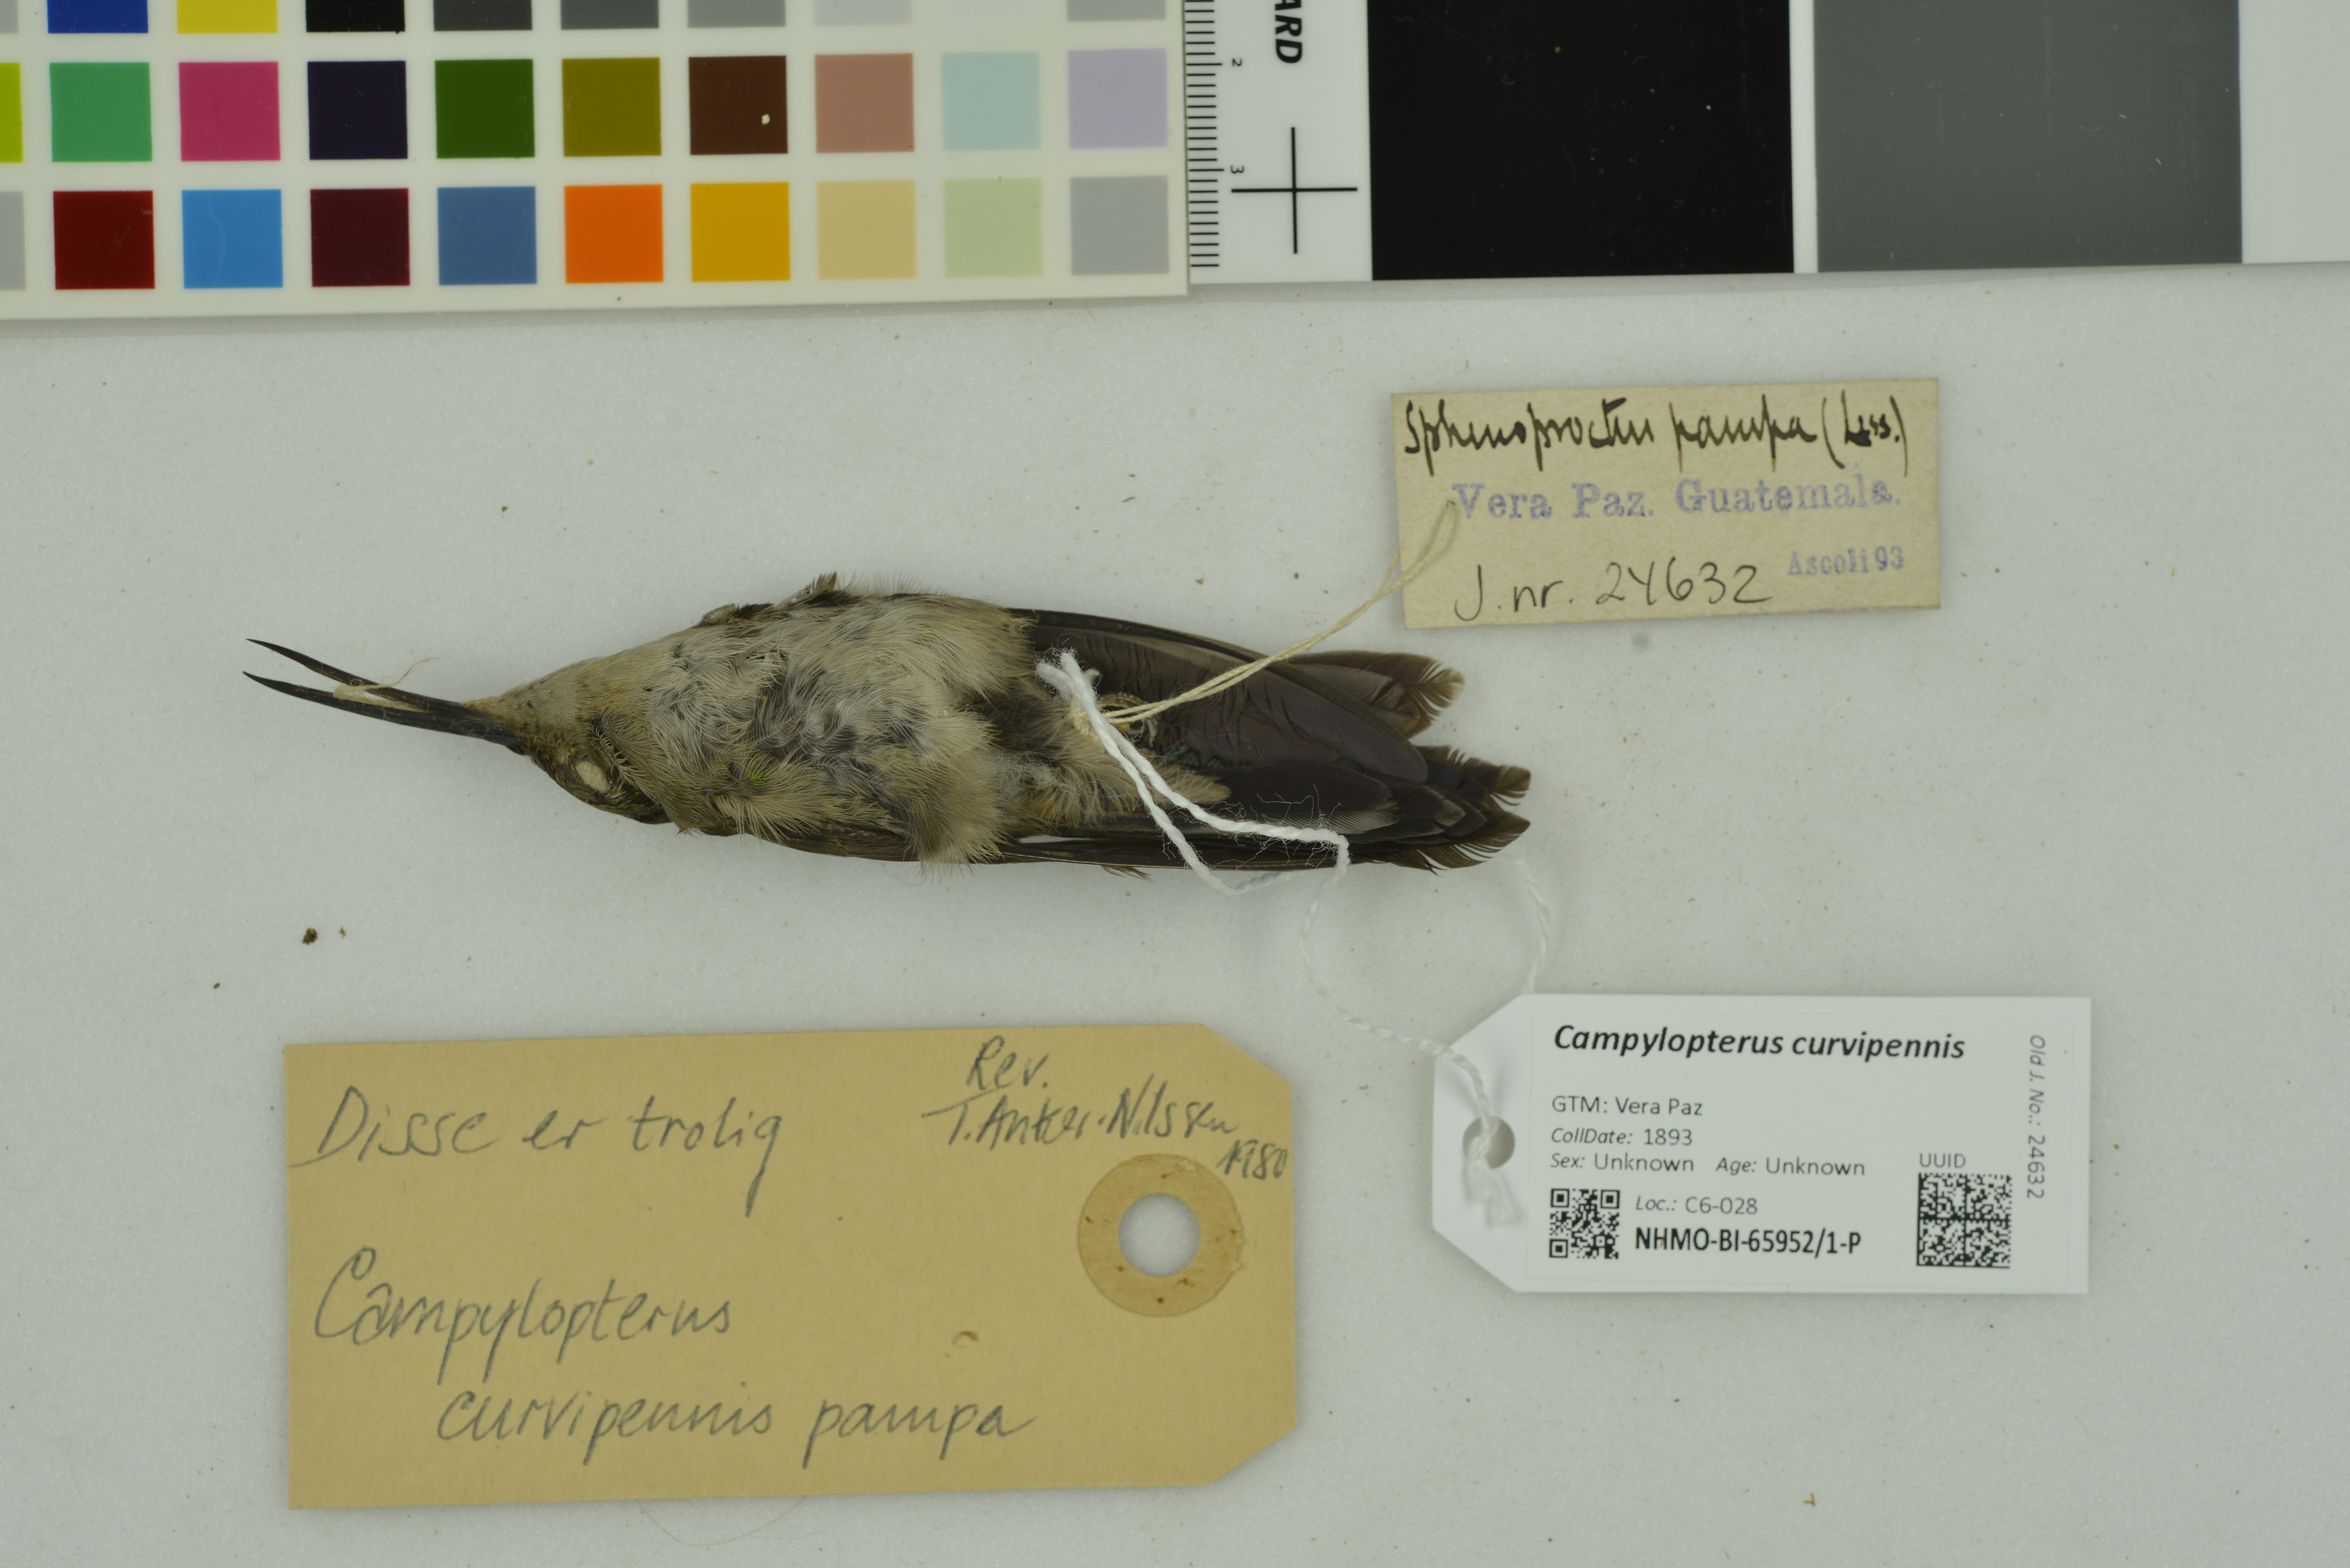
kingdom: Animalia
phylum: Chordata
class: Aves
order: Apodiformes
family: Trochilidae
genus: Pampa
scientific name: Pampa curvipennis
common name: Curve-winged sabrewing
